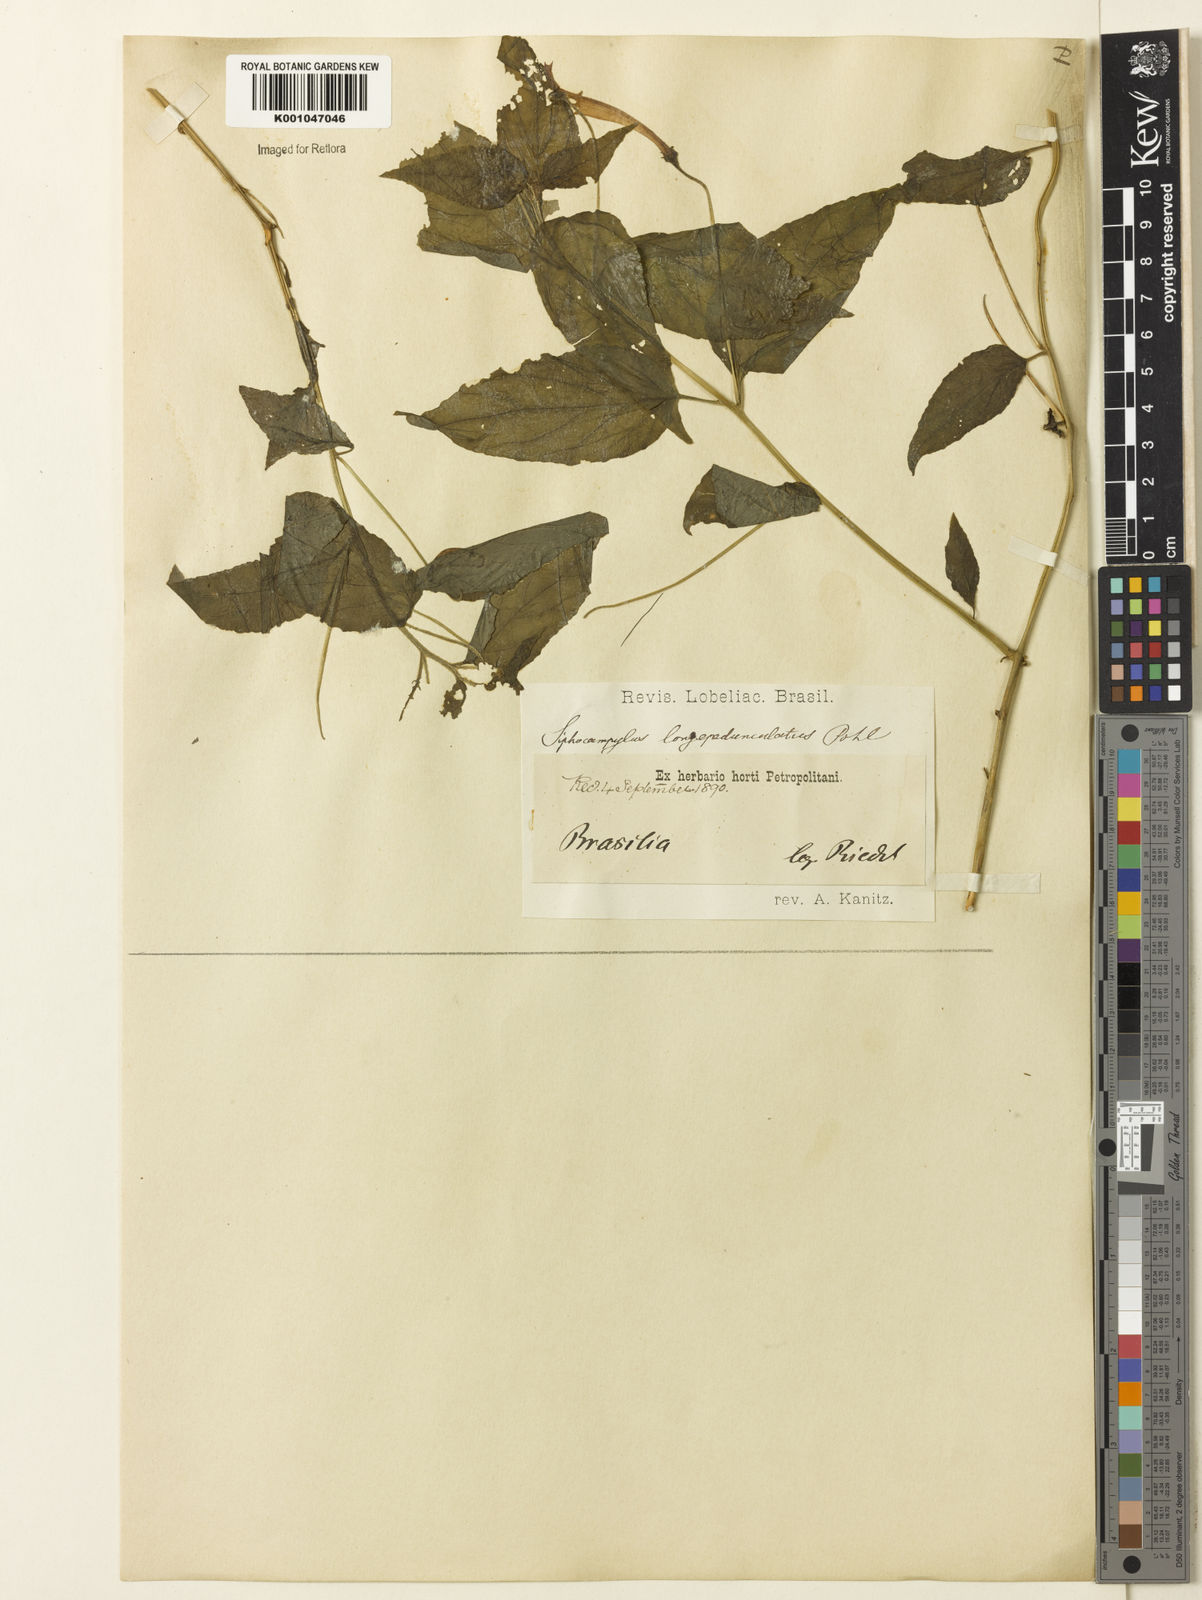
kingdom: Plantae
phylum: Tracheophyta
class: Magnoliopsida
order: Asterales
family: Campanulaceae
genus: Siphocampylus
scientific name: Siphocampylus longipedunculatus
